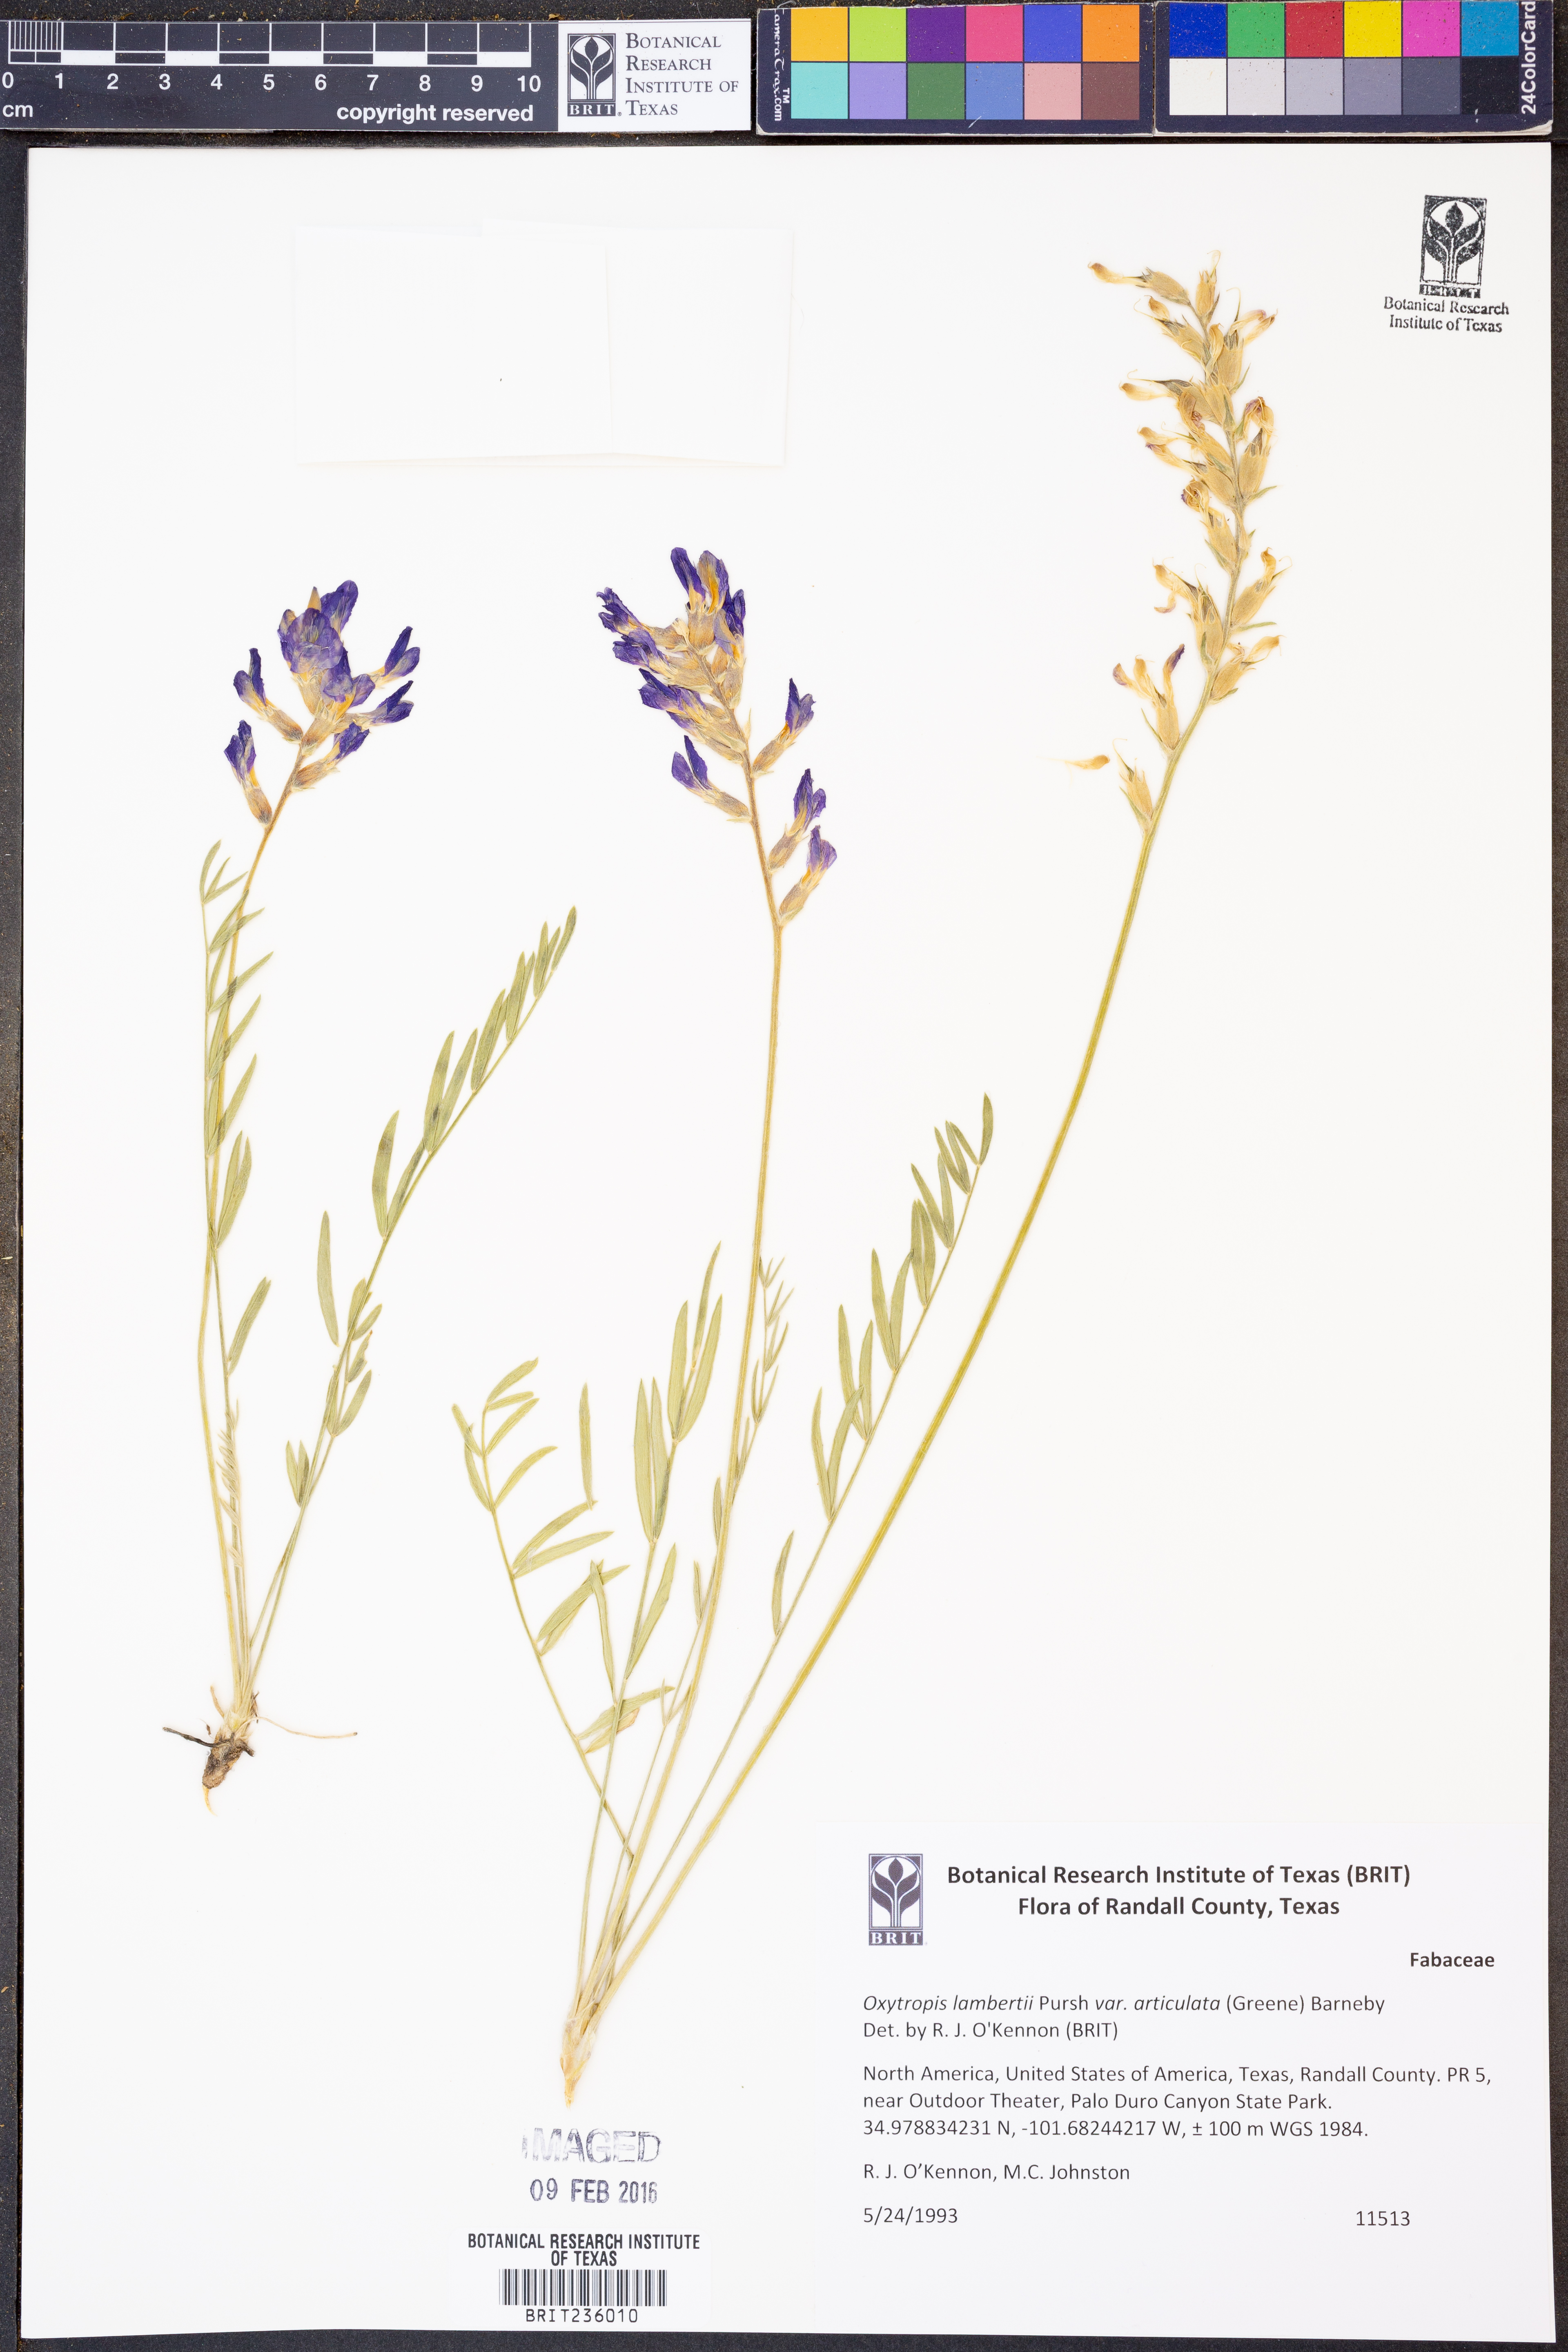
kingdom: Plantae
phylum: Tracheophyta
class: Magnoliopsida
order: Fabales
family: Fabaceae
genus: Oxytropis
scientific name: Oxytropis lambertii
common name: Purple locoweed
